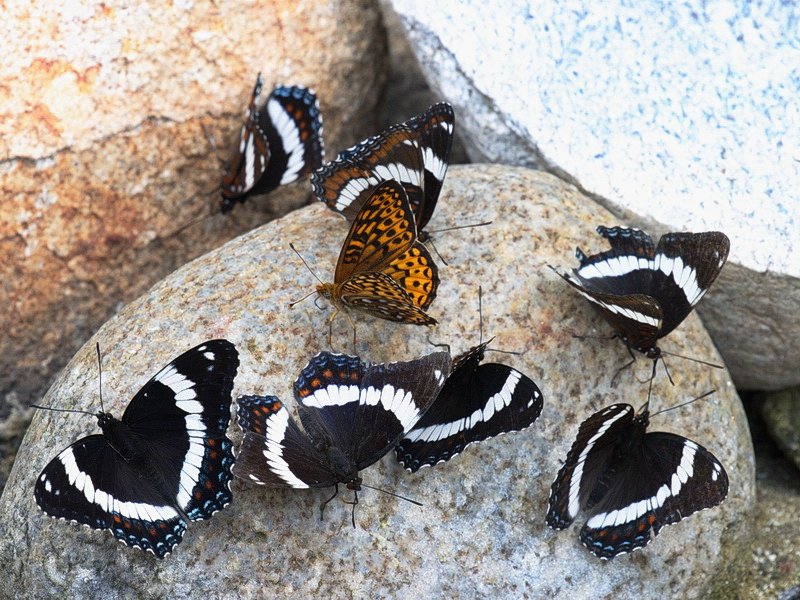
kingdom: Animalia
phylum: Arthropoda
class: Insecta
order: Lepidoptera
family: Nymphalidae
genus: Speyeria
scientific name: Speyeria atlantis
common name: Atlantis Fritillary
